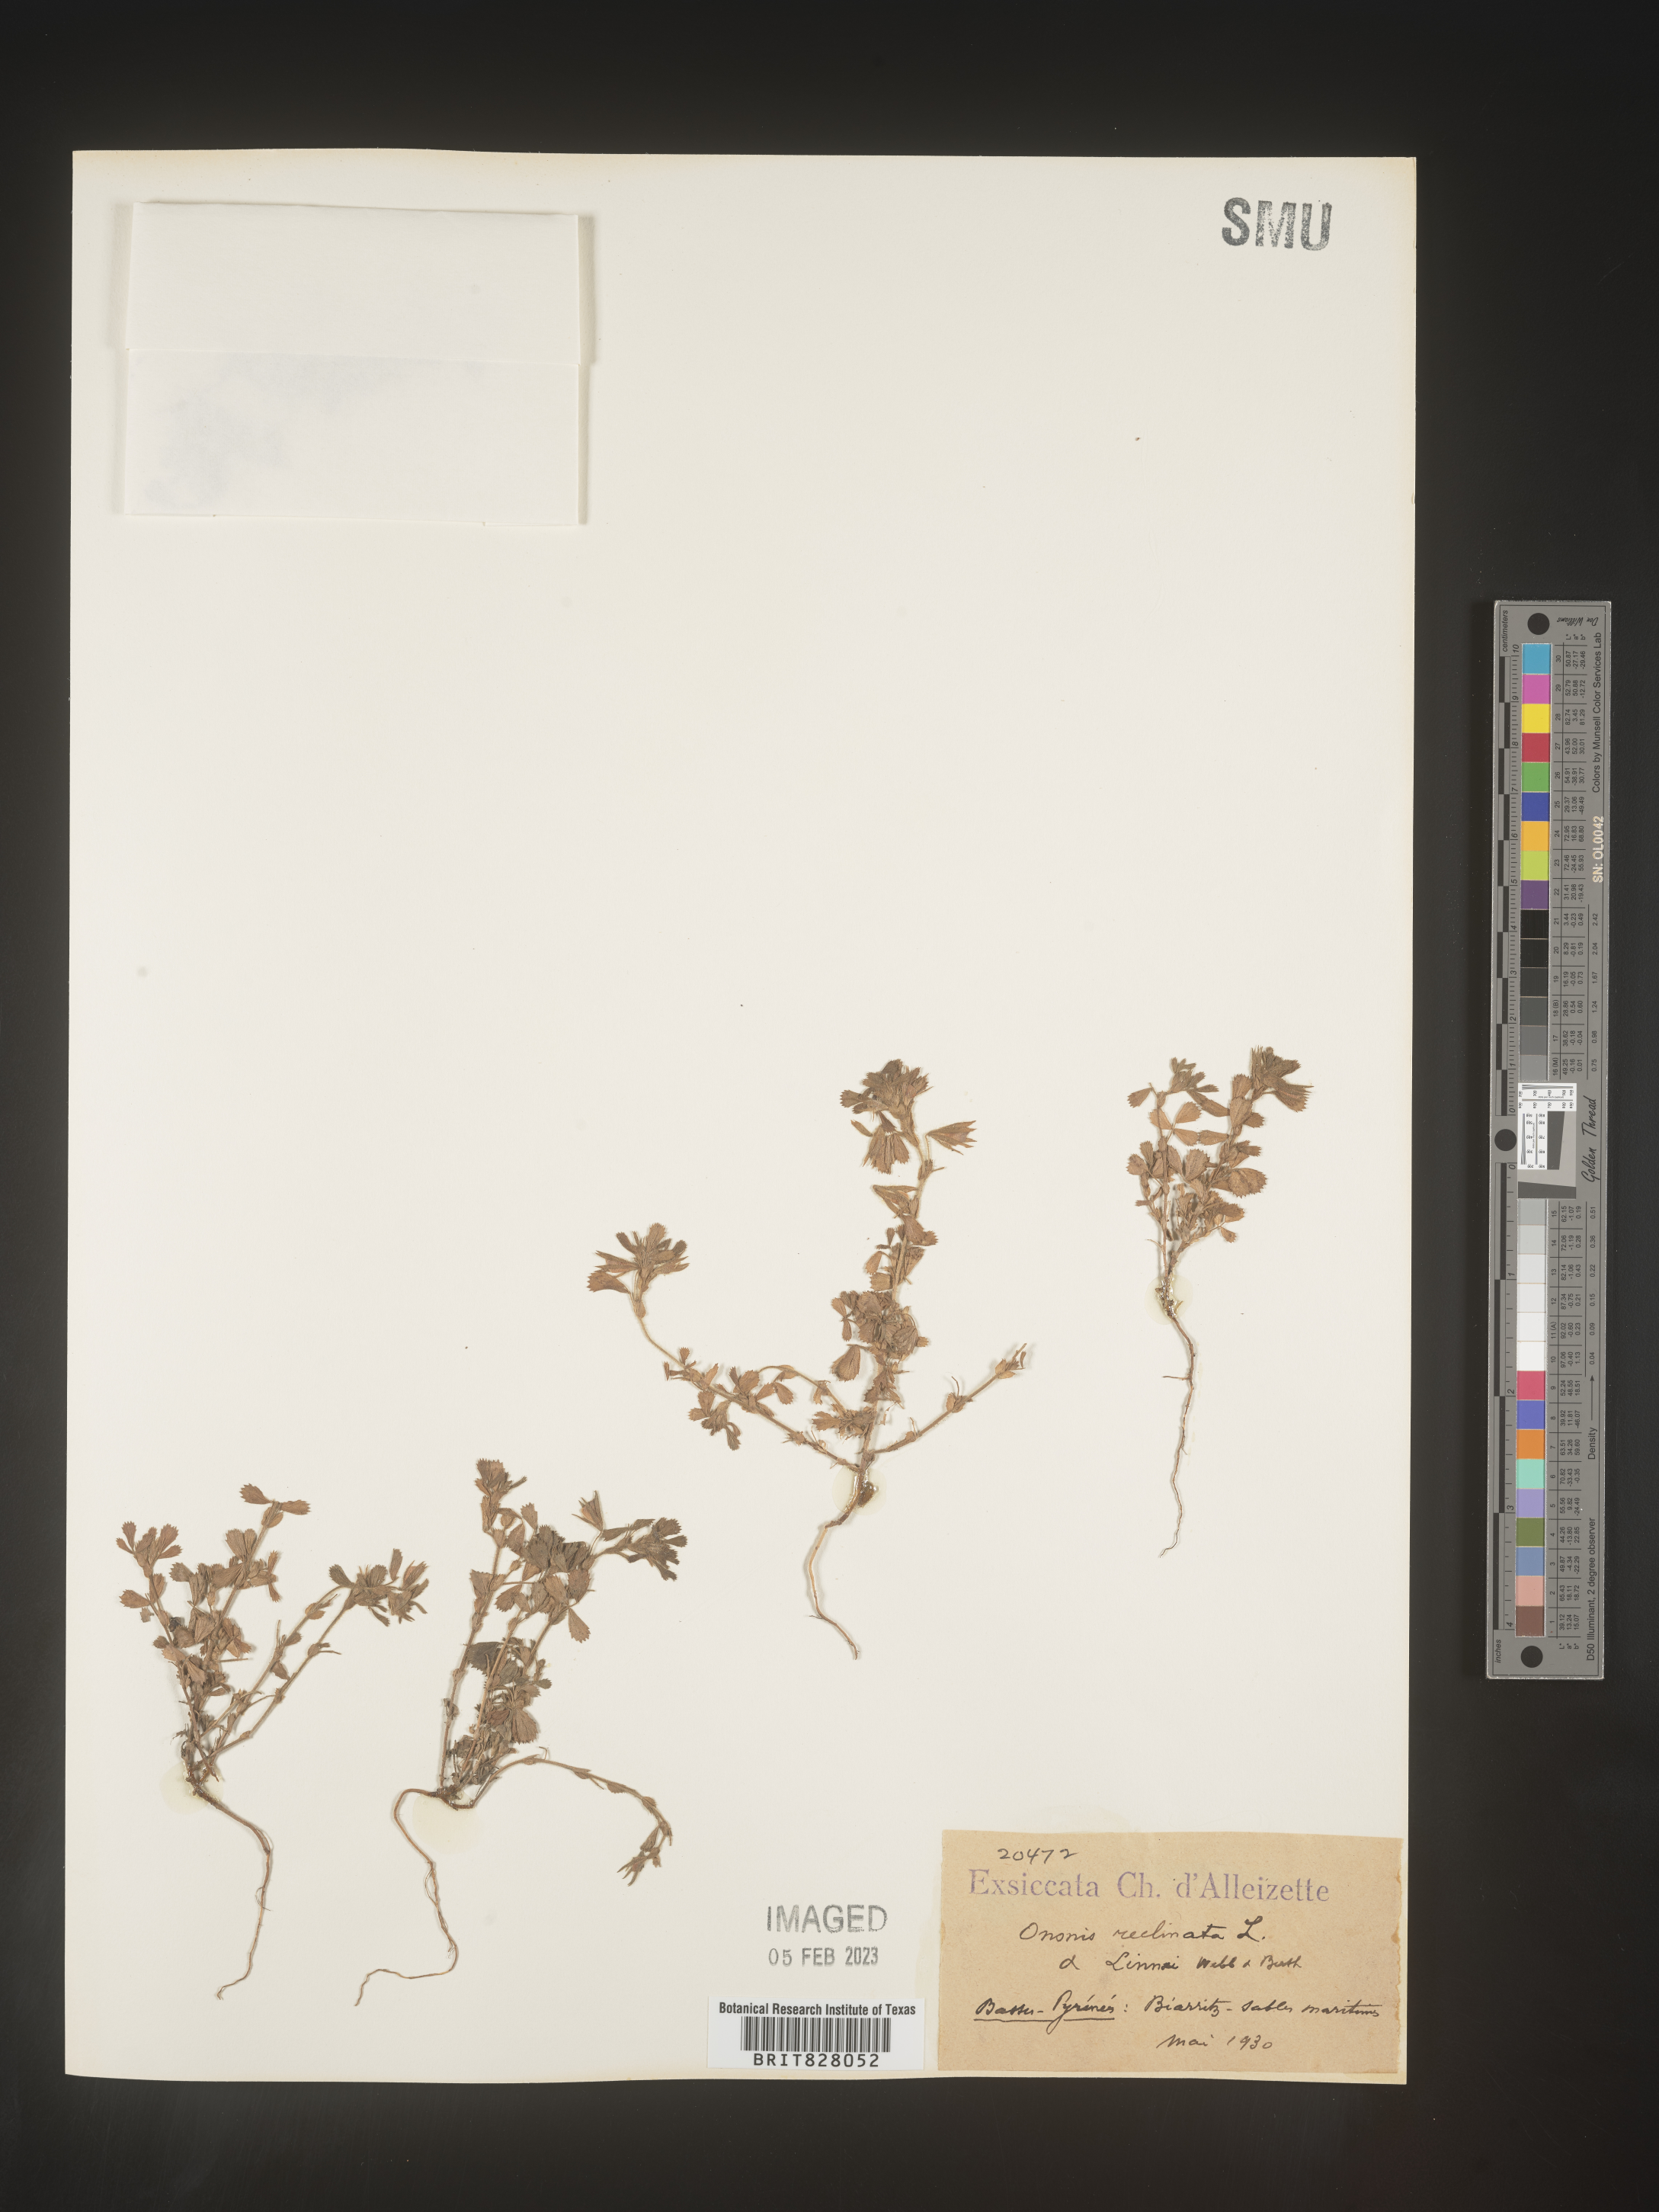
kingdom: Plantae
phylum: Tracheophyta
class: Magnoliopsida
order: Fabales
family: Fabaceae
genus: Ononis
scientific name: Ononis
